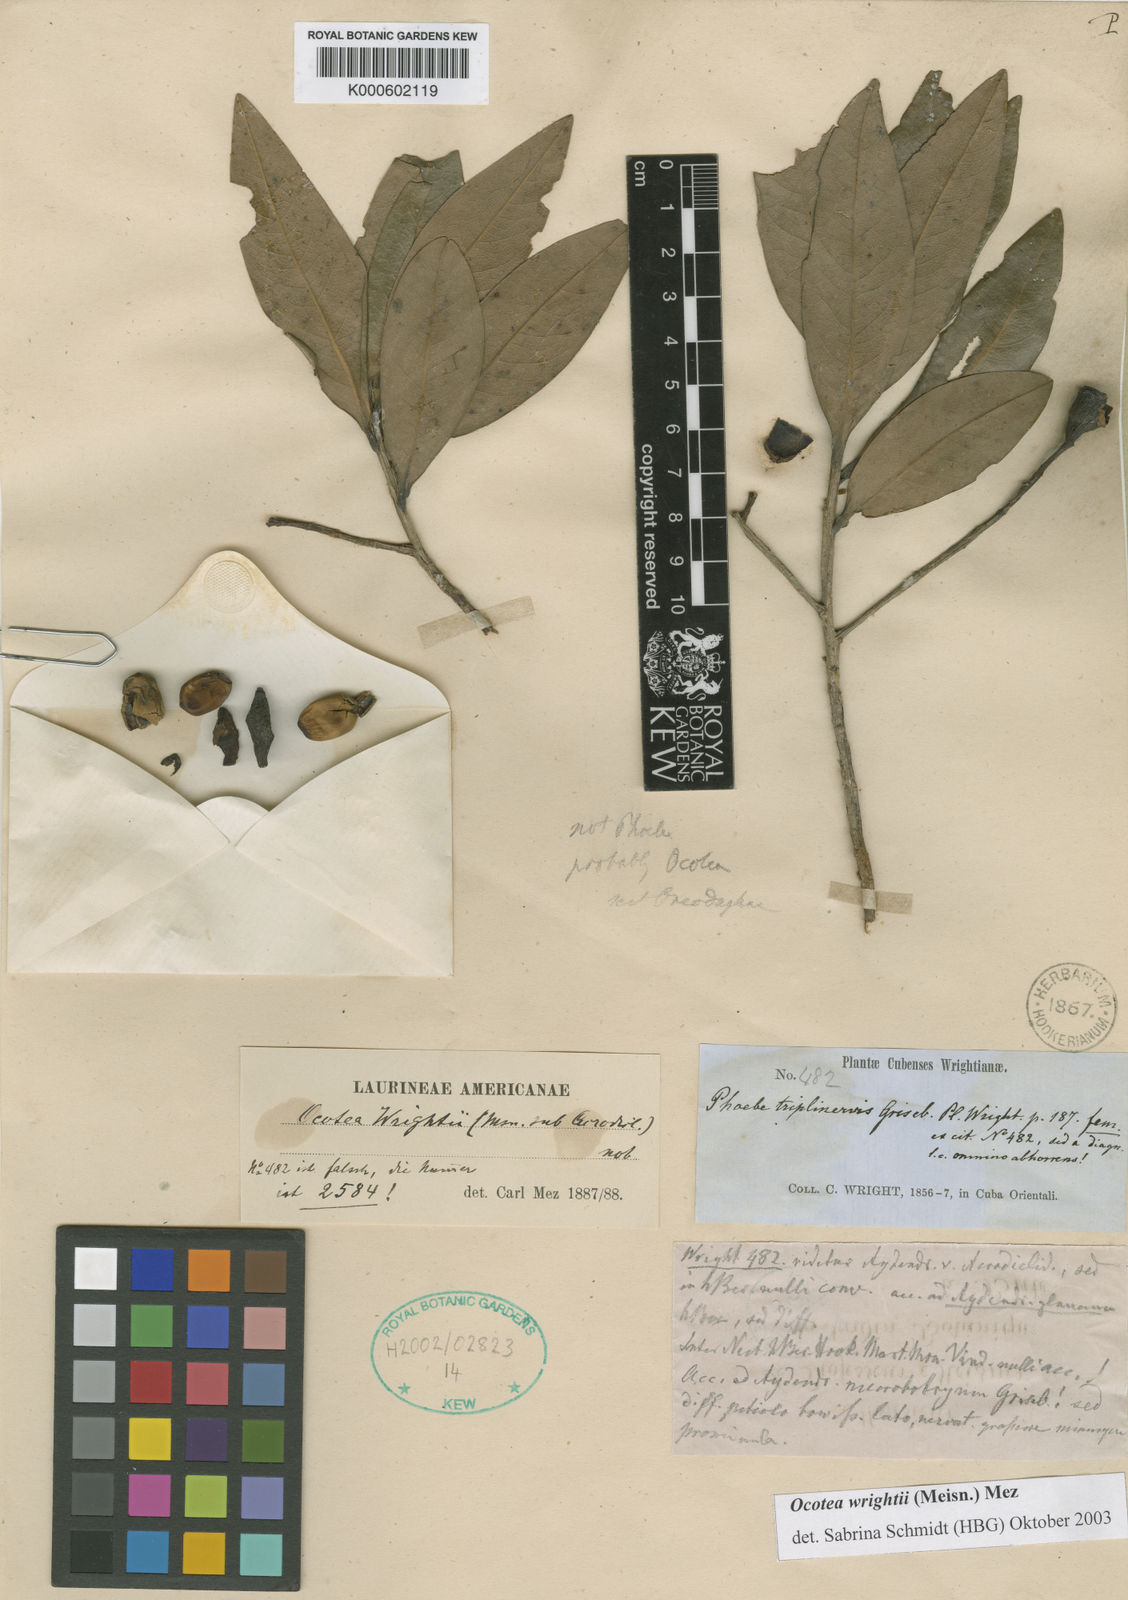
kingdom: Plantae
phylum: Tracheophyta
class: Magnoliopsida
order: Laurales
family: Lauraceae
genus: Ocotea
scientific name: Ocotea wrightii
